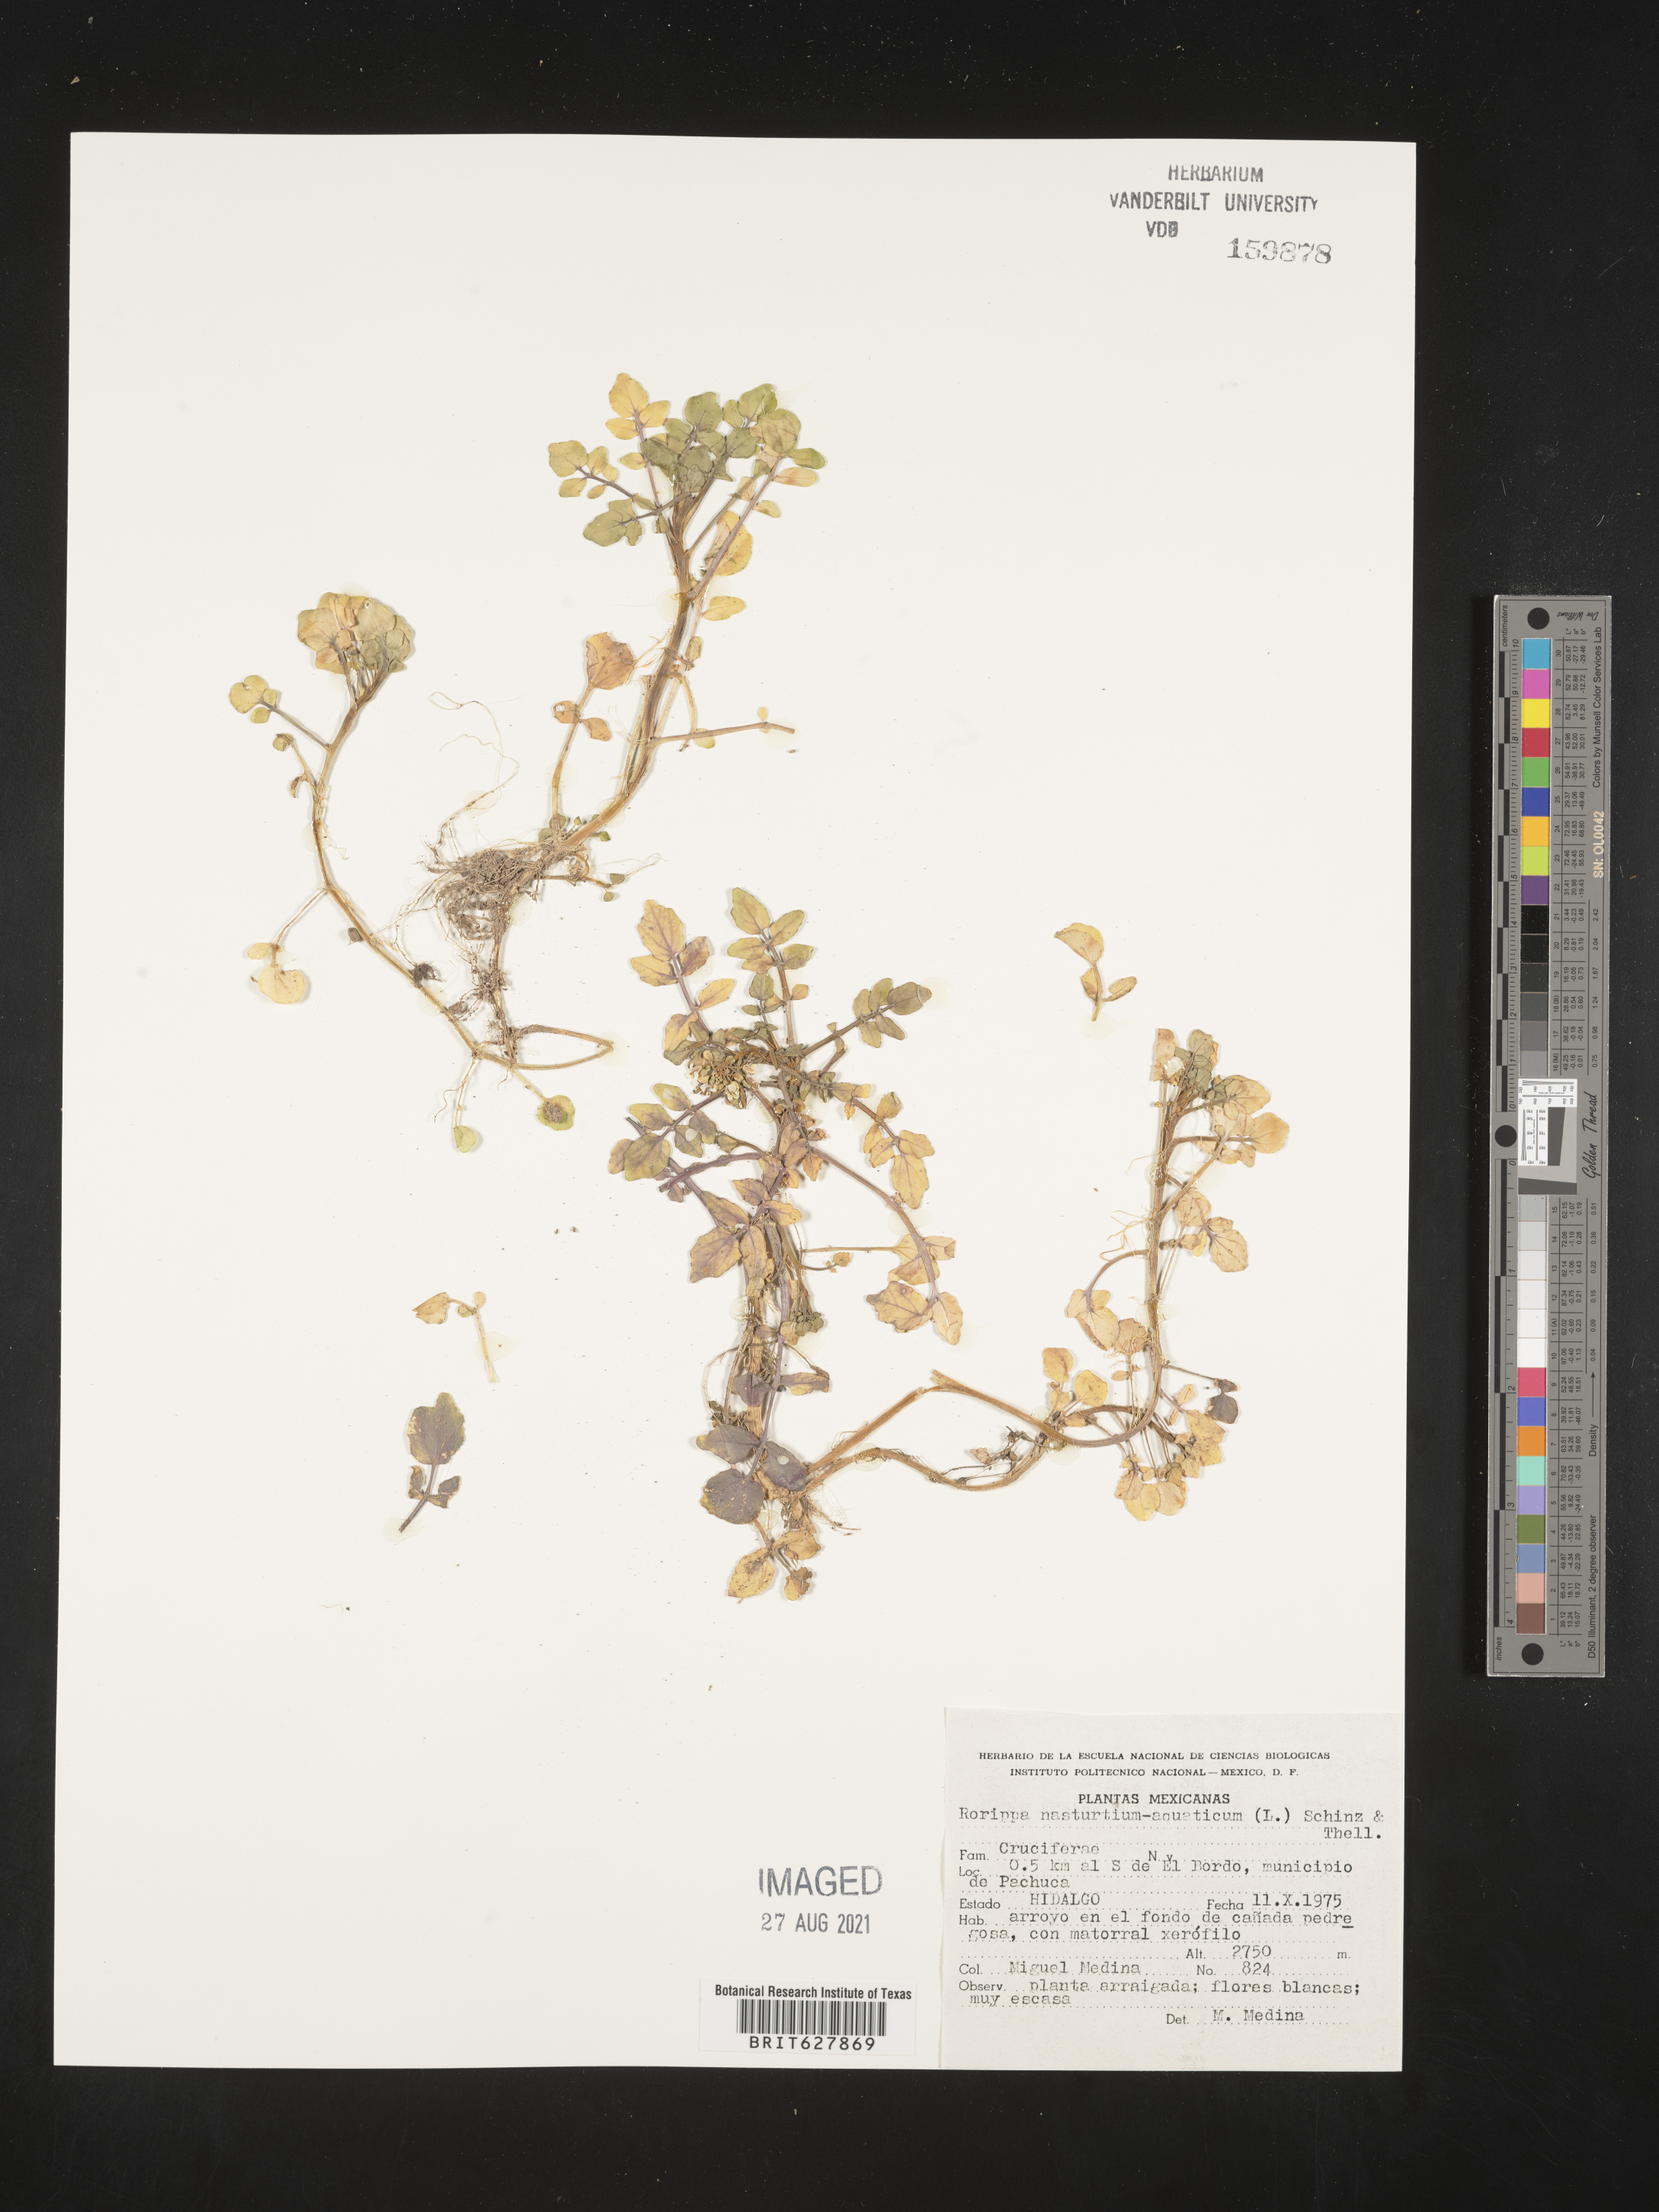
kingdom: Plantae
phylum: Tracheophyta
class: Magnoliopsida
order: Brassicales
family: Brassicaceae
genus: Rorippa
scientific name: Rorippa
